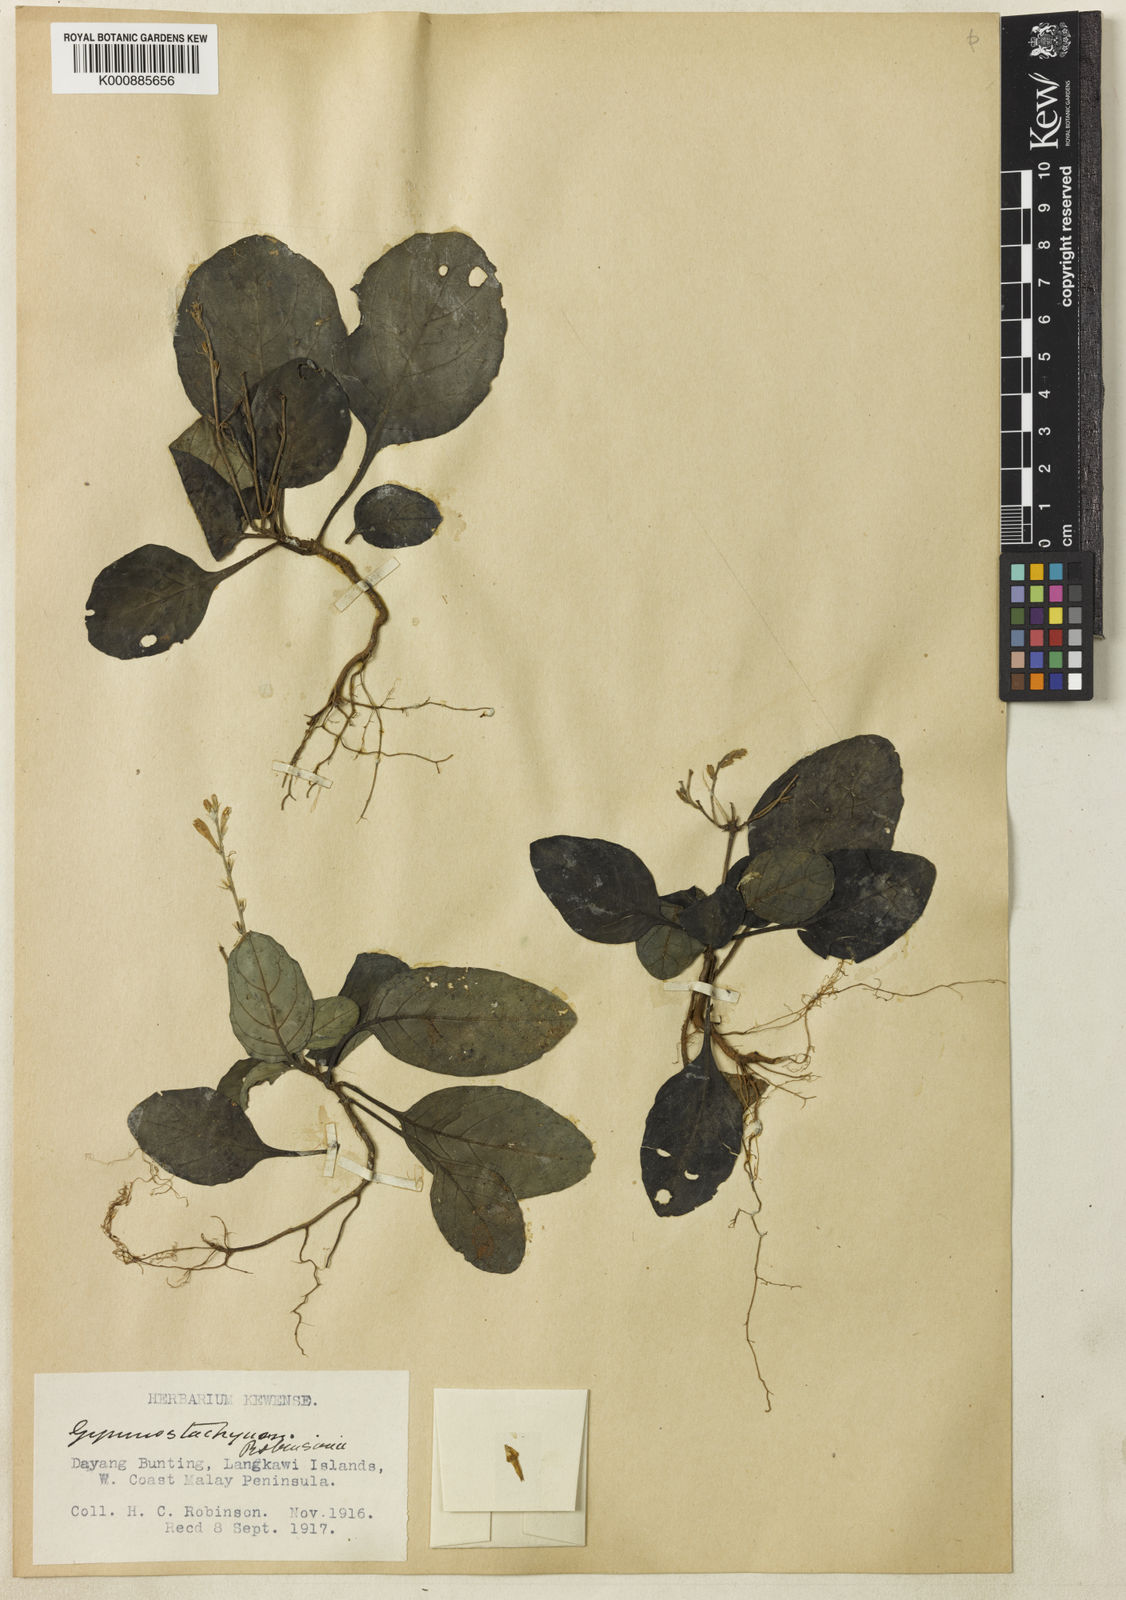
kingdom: Plantae
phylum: Tracheophyta
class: Magnoliopsida
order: Lamiales
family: Acanthaceae
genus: Gymnostachyum
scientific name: Gymnostachyum decurrens
